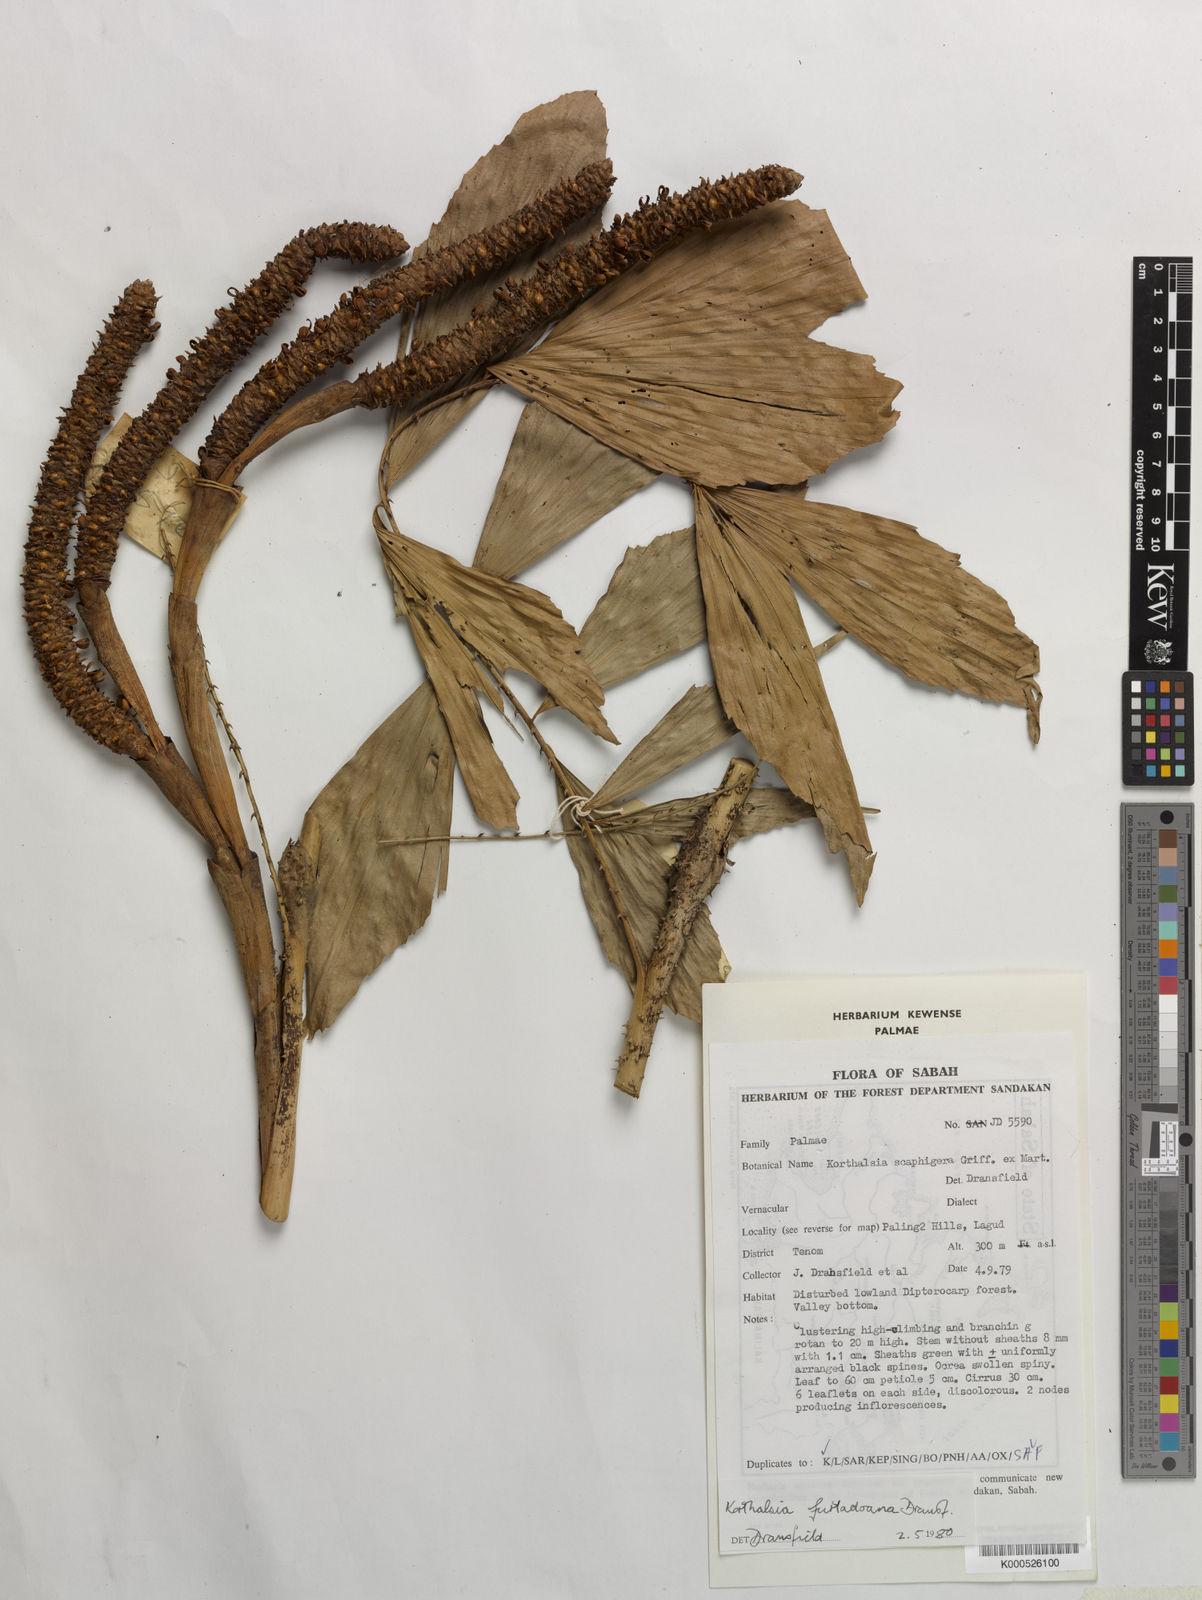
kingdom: Plantae
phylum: Tracheophyta
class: Liliopsida
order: Arecales
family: Arecaceae
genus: Korthalsia
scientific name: Korthalsia furtadoana
